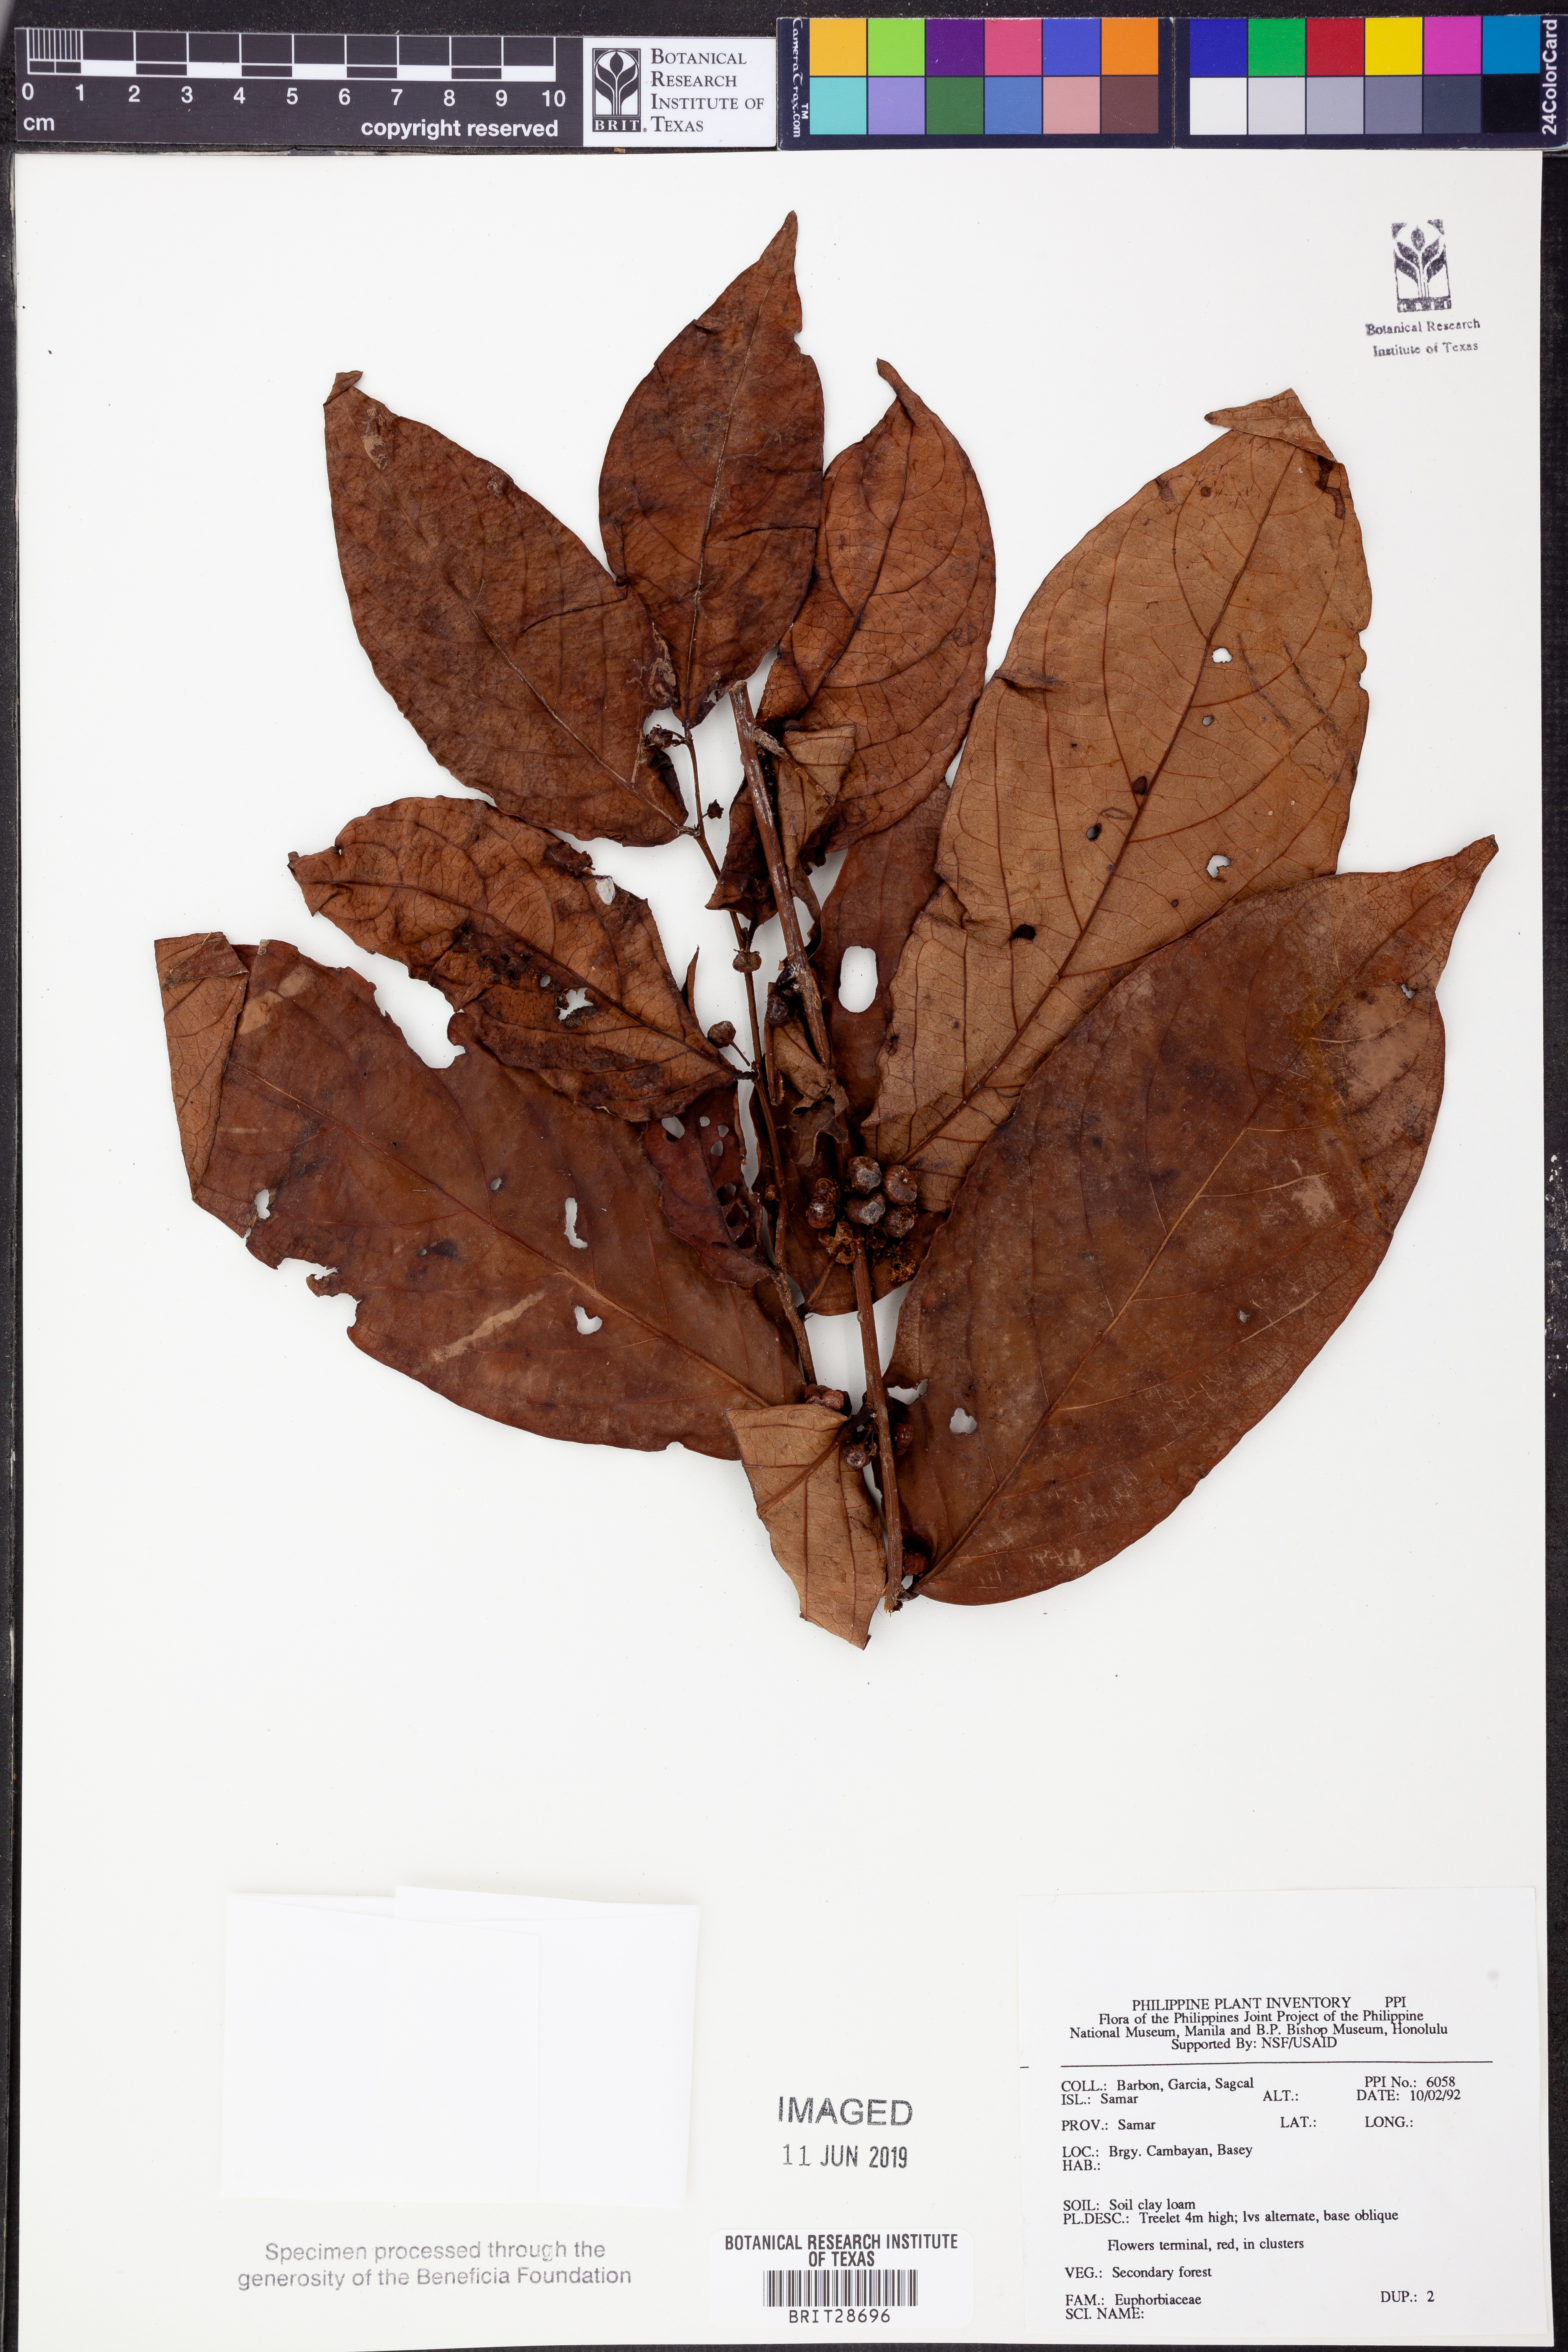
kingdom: Plantae
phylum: Tracheophyta
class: Magnoliopsida
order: Malpighiales
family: Euphorbiaceae
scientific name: Euphorbiaceae
